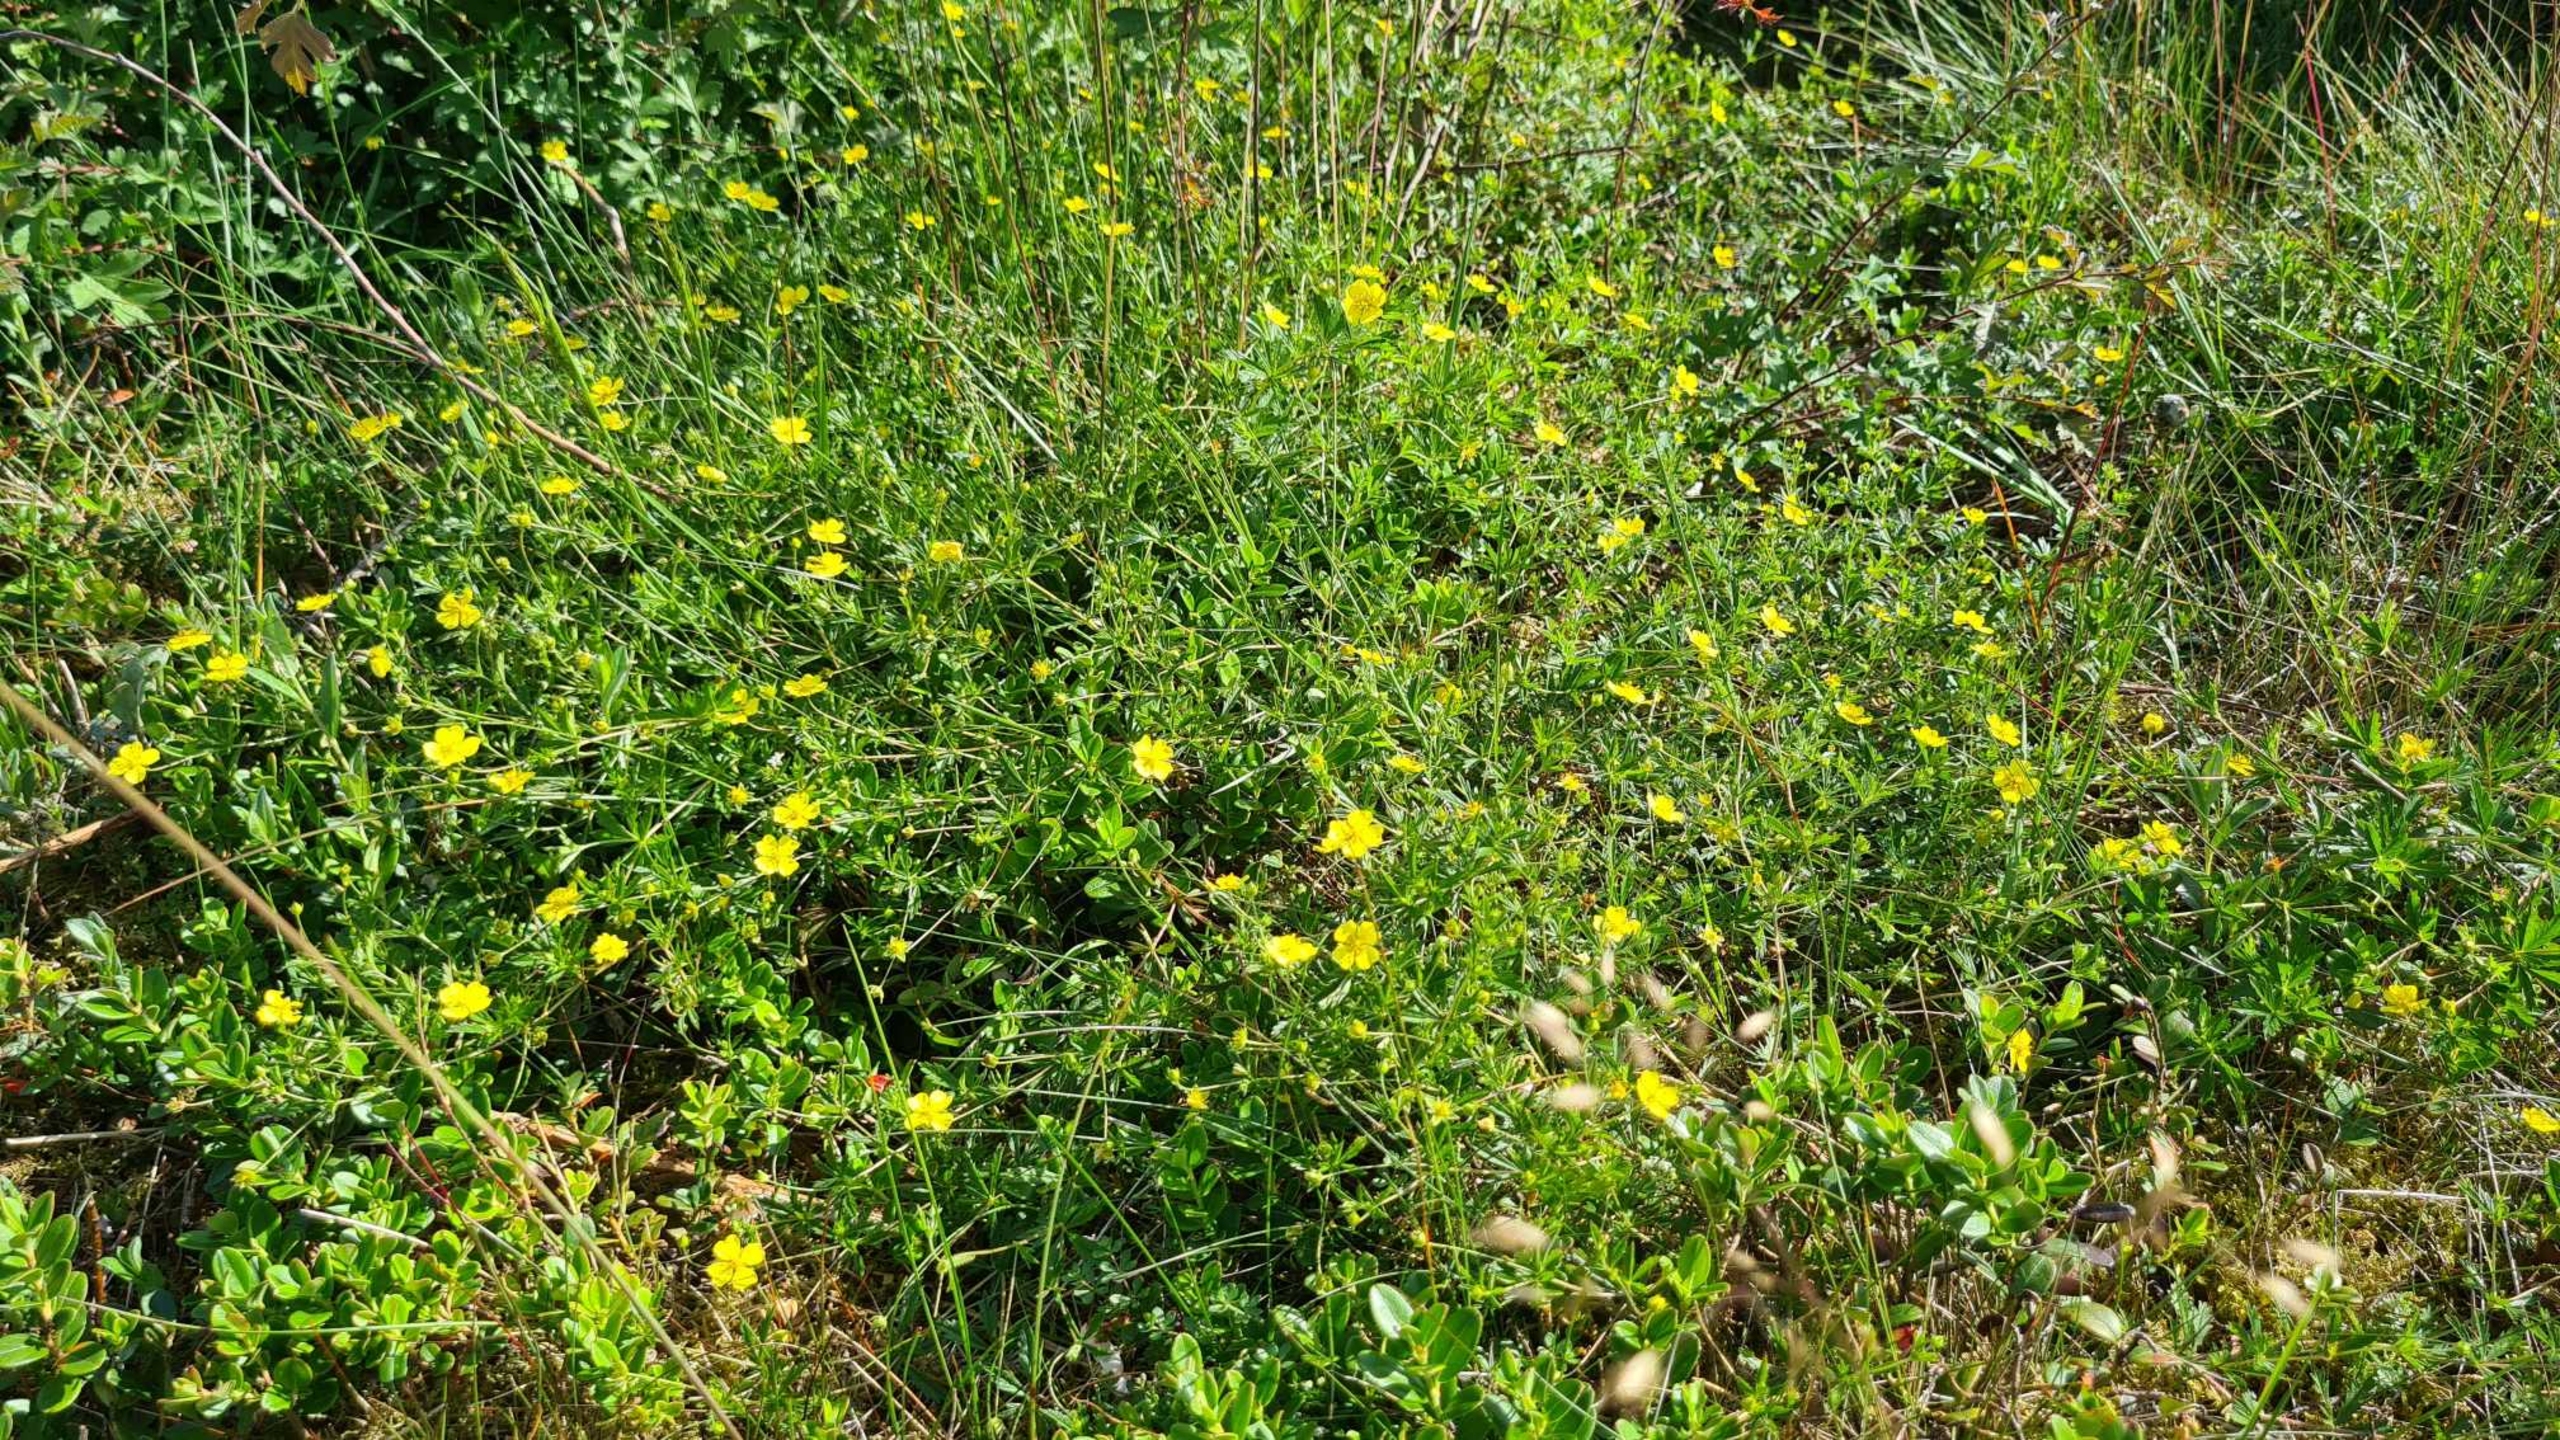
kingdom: Plantae
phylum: Tracheophyta
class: Magnoliopsida
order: Rosales
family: Rosaceae
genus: Potentilla
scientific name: Potentilla erecta
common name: Tormentil
